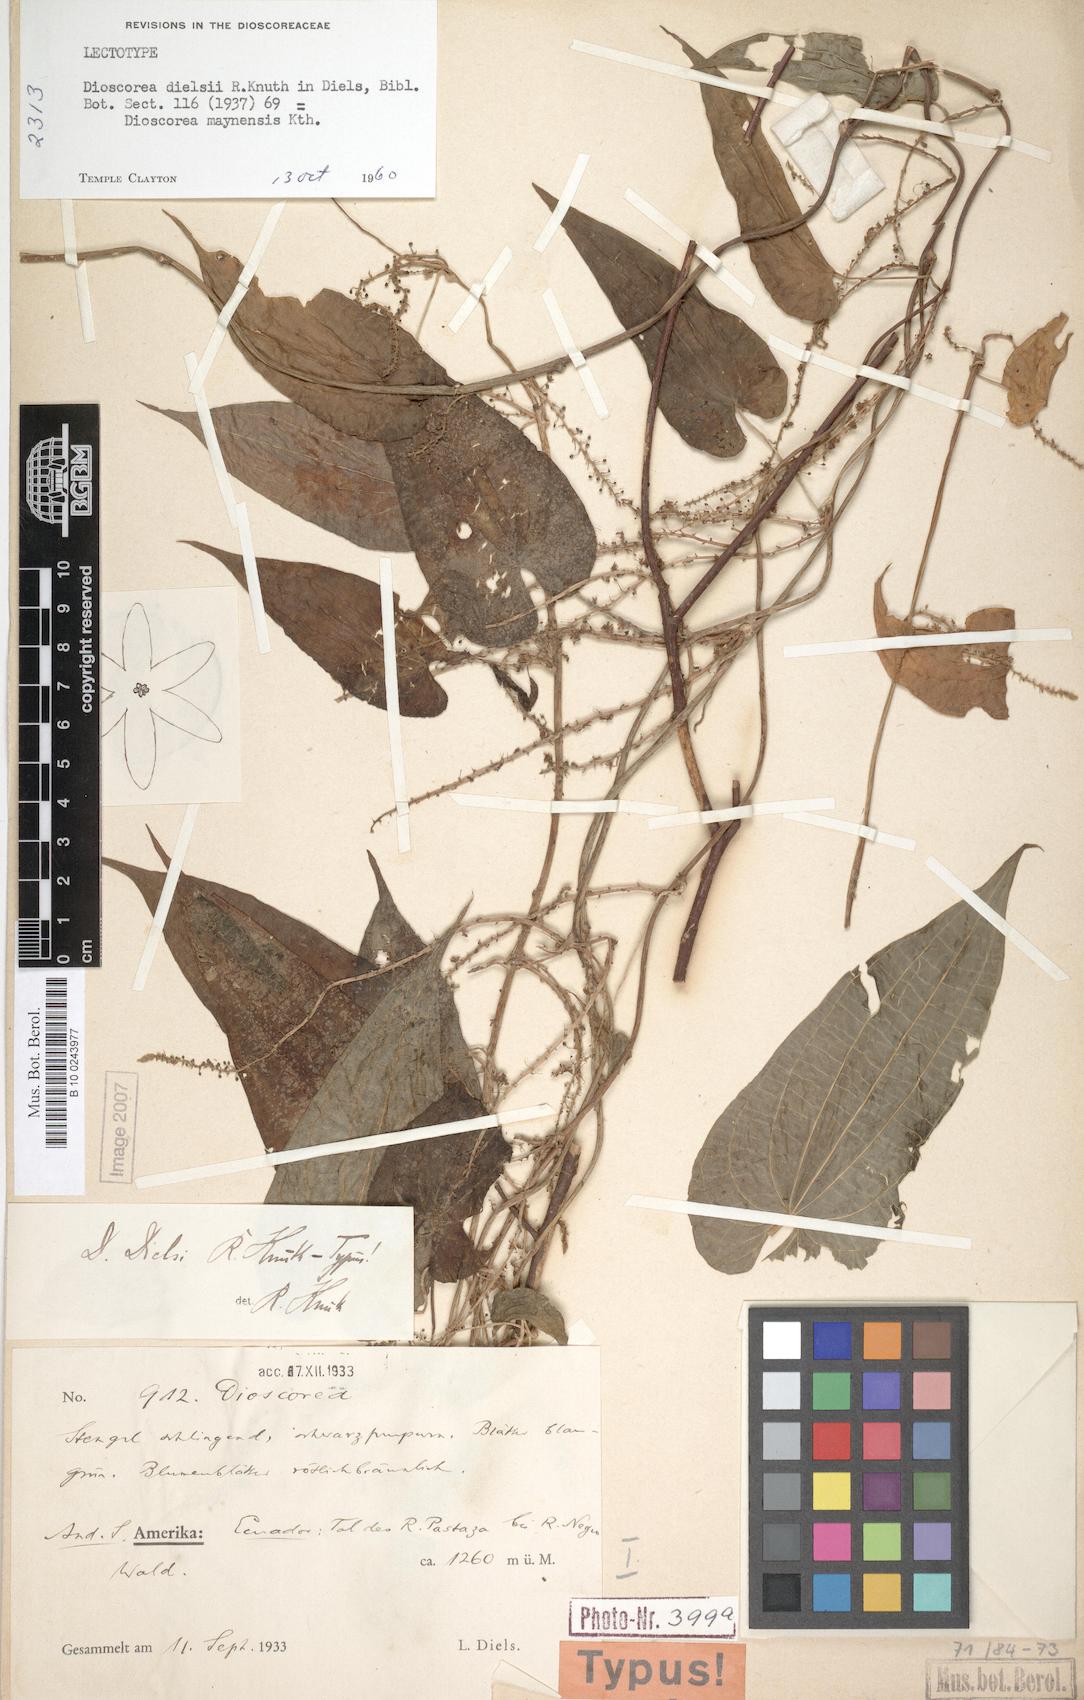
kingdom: Plantae
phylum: Tracheophyta
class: Liliopsida
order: Dioscoreales
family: Dioscoreaceae
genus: Dioscorea
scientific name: Dioscorea dielsii
